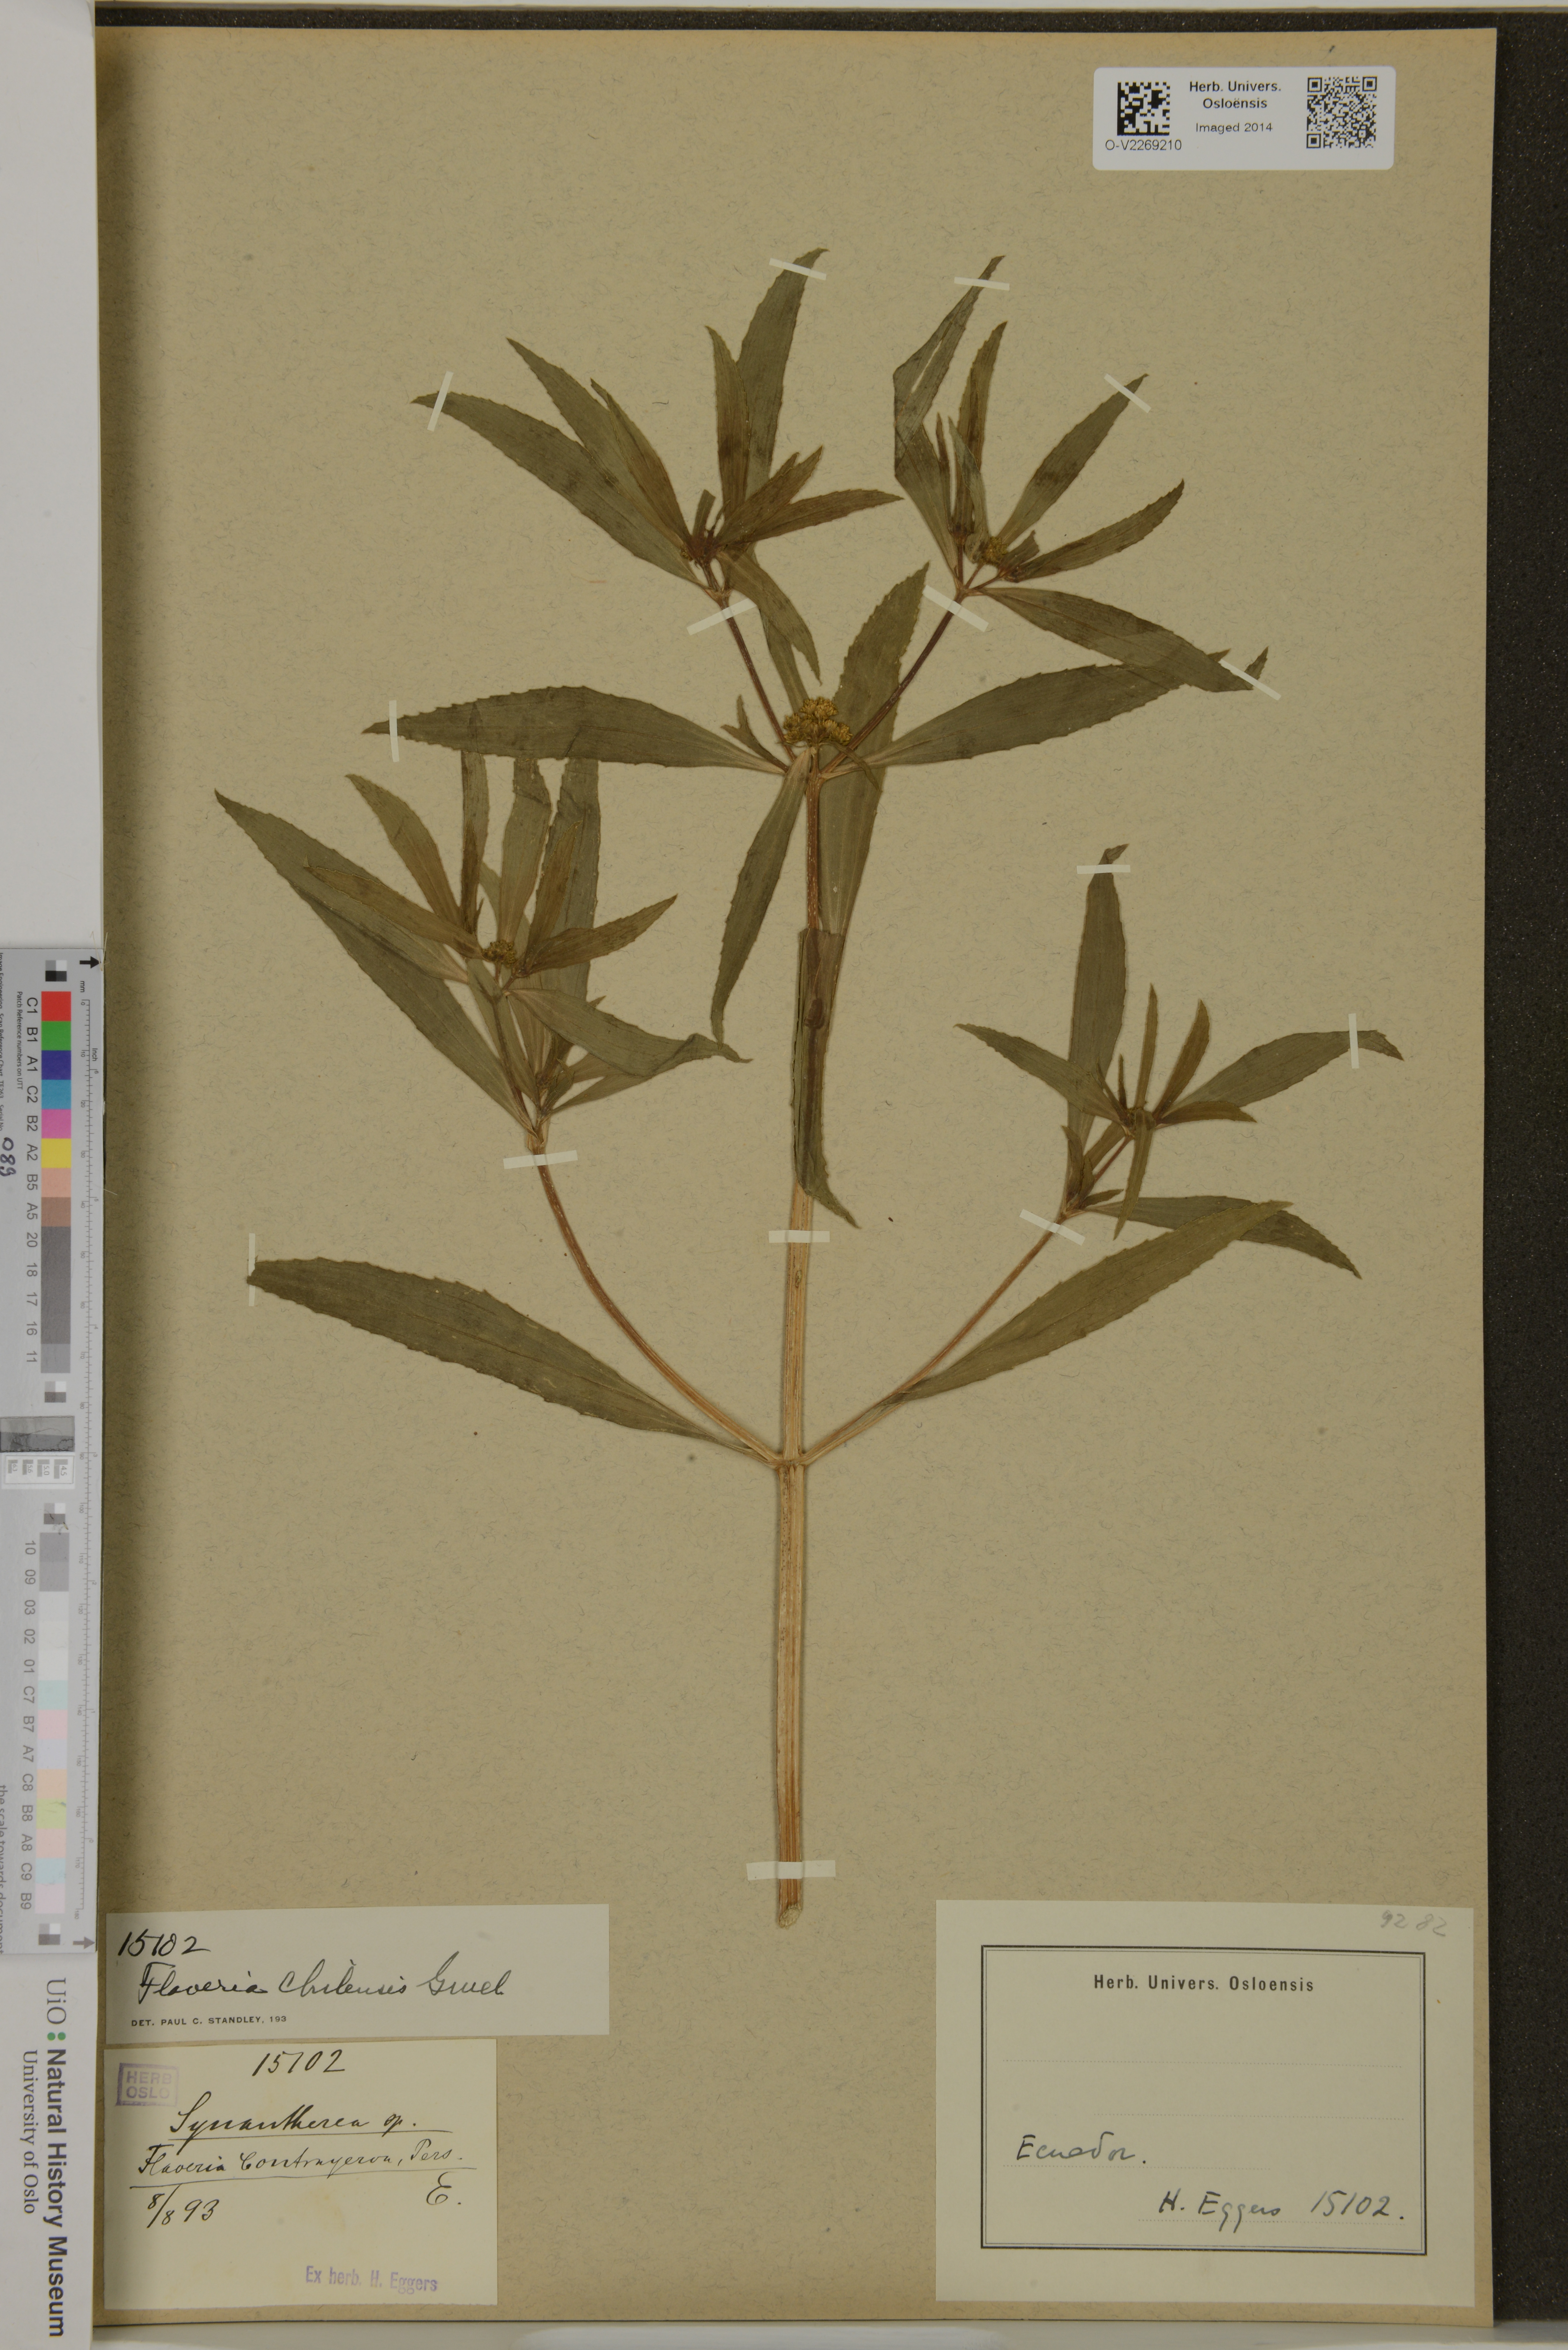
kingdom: Plantae
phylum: Tracheophyta
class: Magnoliopsida
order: Asterales
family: Asteraceae
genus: Flaveria
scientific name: Flaveria bidentis
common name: Coastal plain yellowtops
